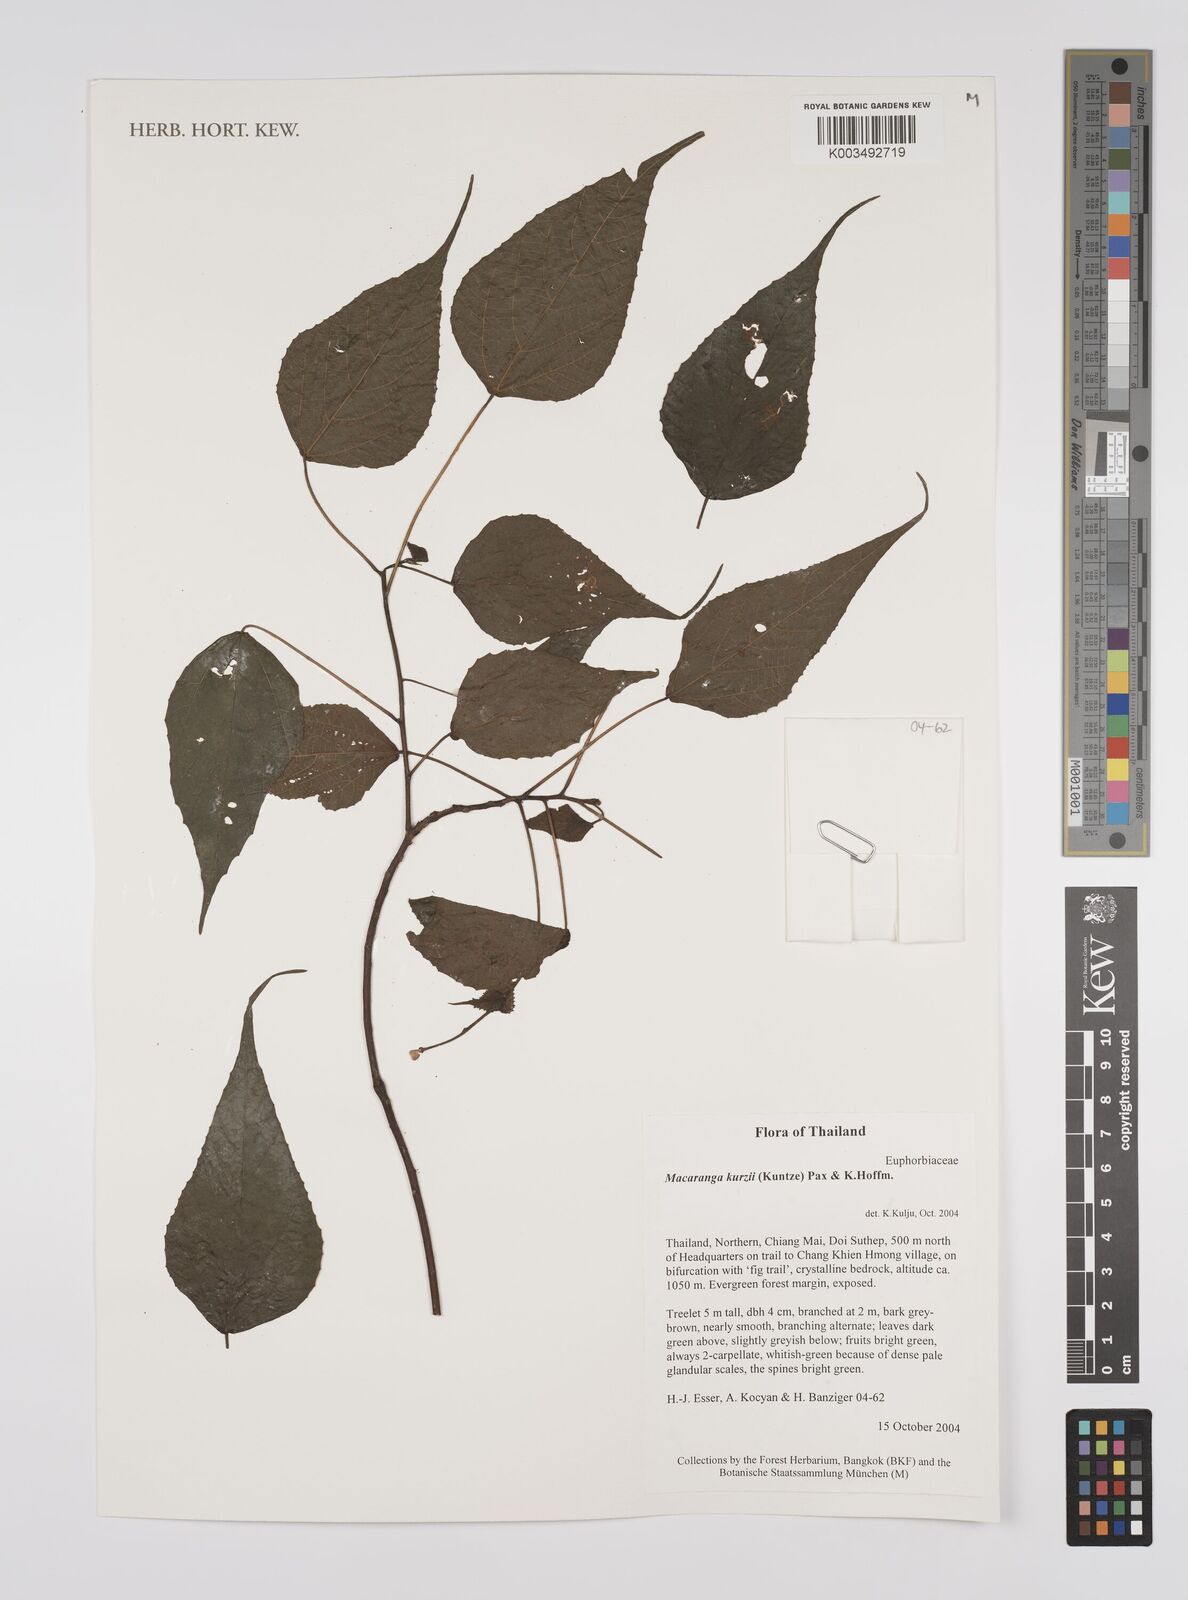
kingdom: Plantae
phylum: Tracheophyta
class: Magnoliopsida
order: Malpighiales
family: Euphorbiaceae
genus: Macaranga
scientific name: Macaranga kurzii
